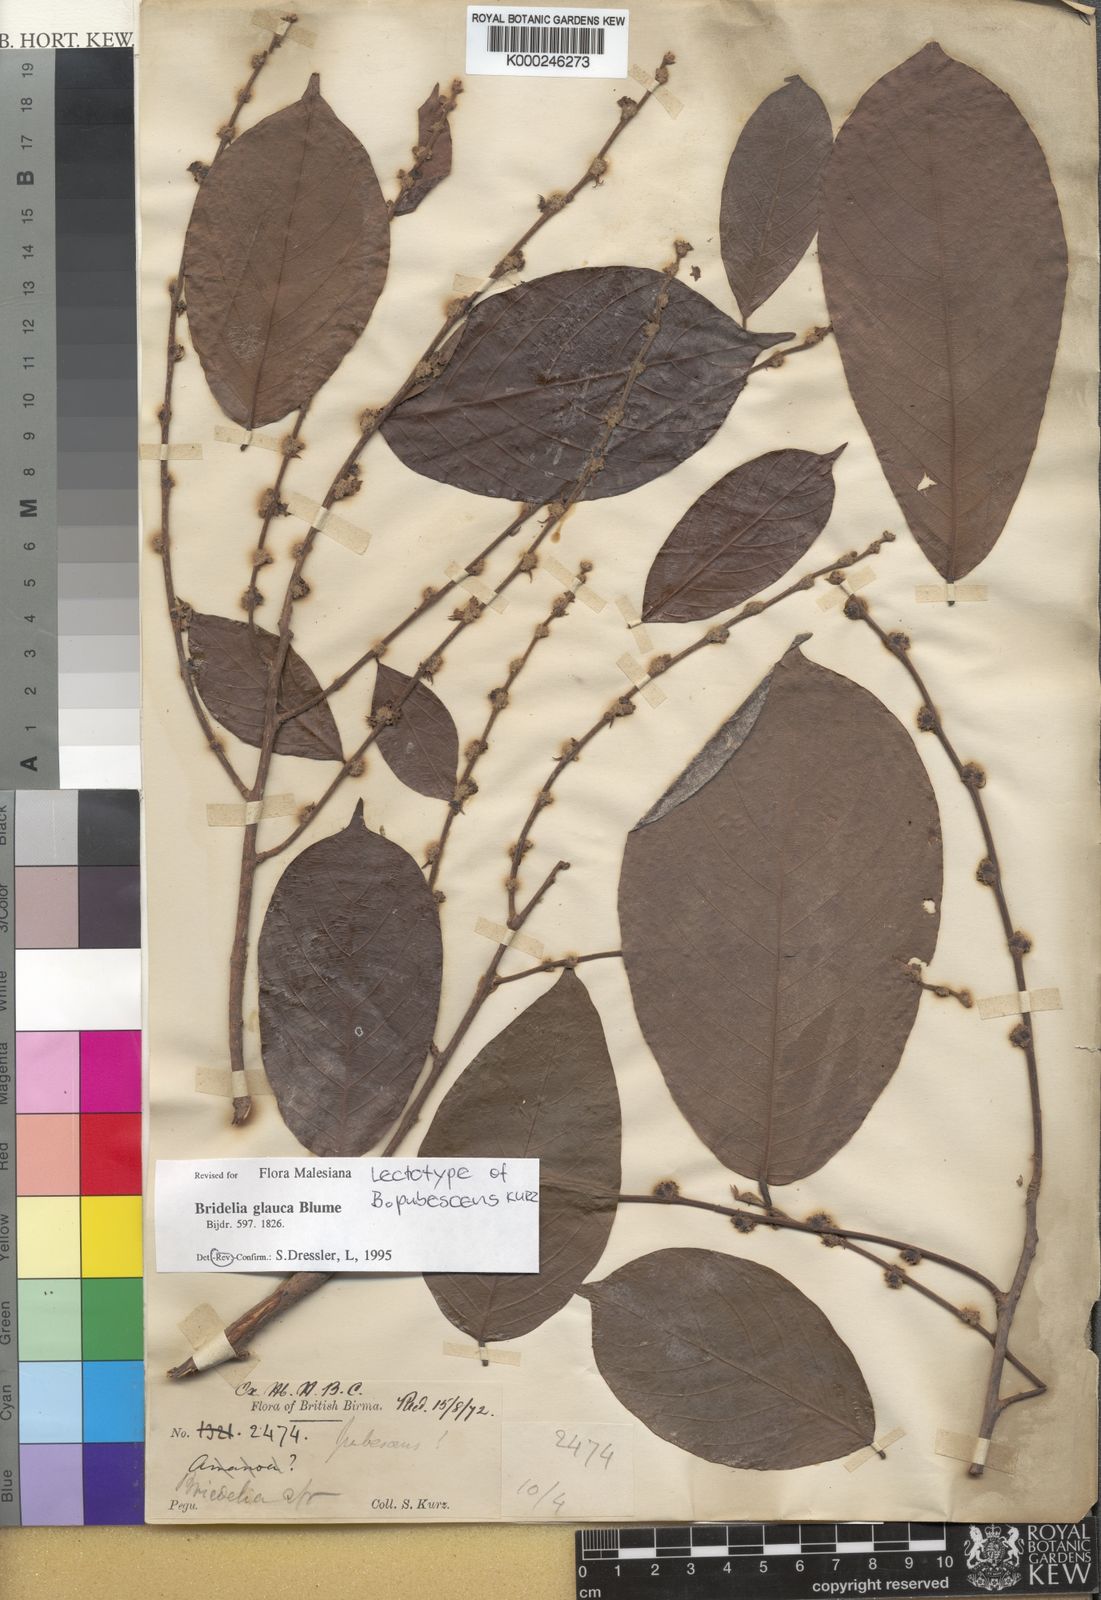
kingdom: Plantae
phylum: Tracheophyta
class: Magnoliopsida
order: Malpighiales
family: Phyllanthaceae
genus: Bridelia
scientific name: Bridelia
